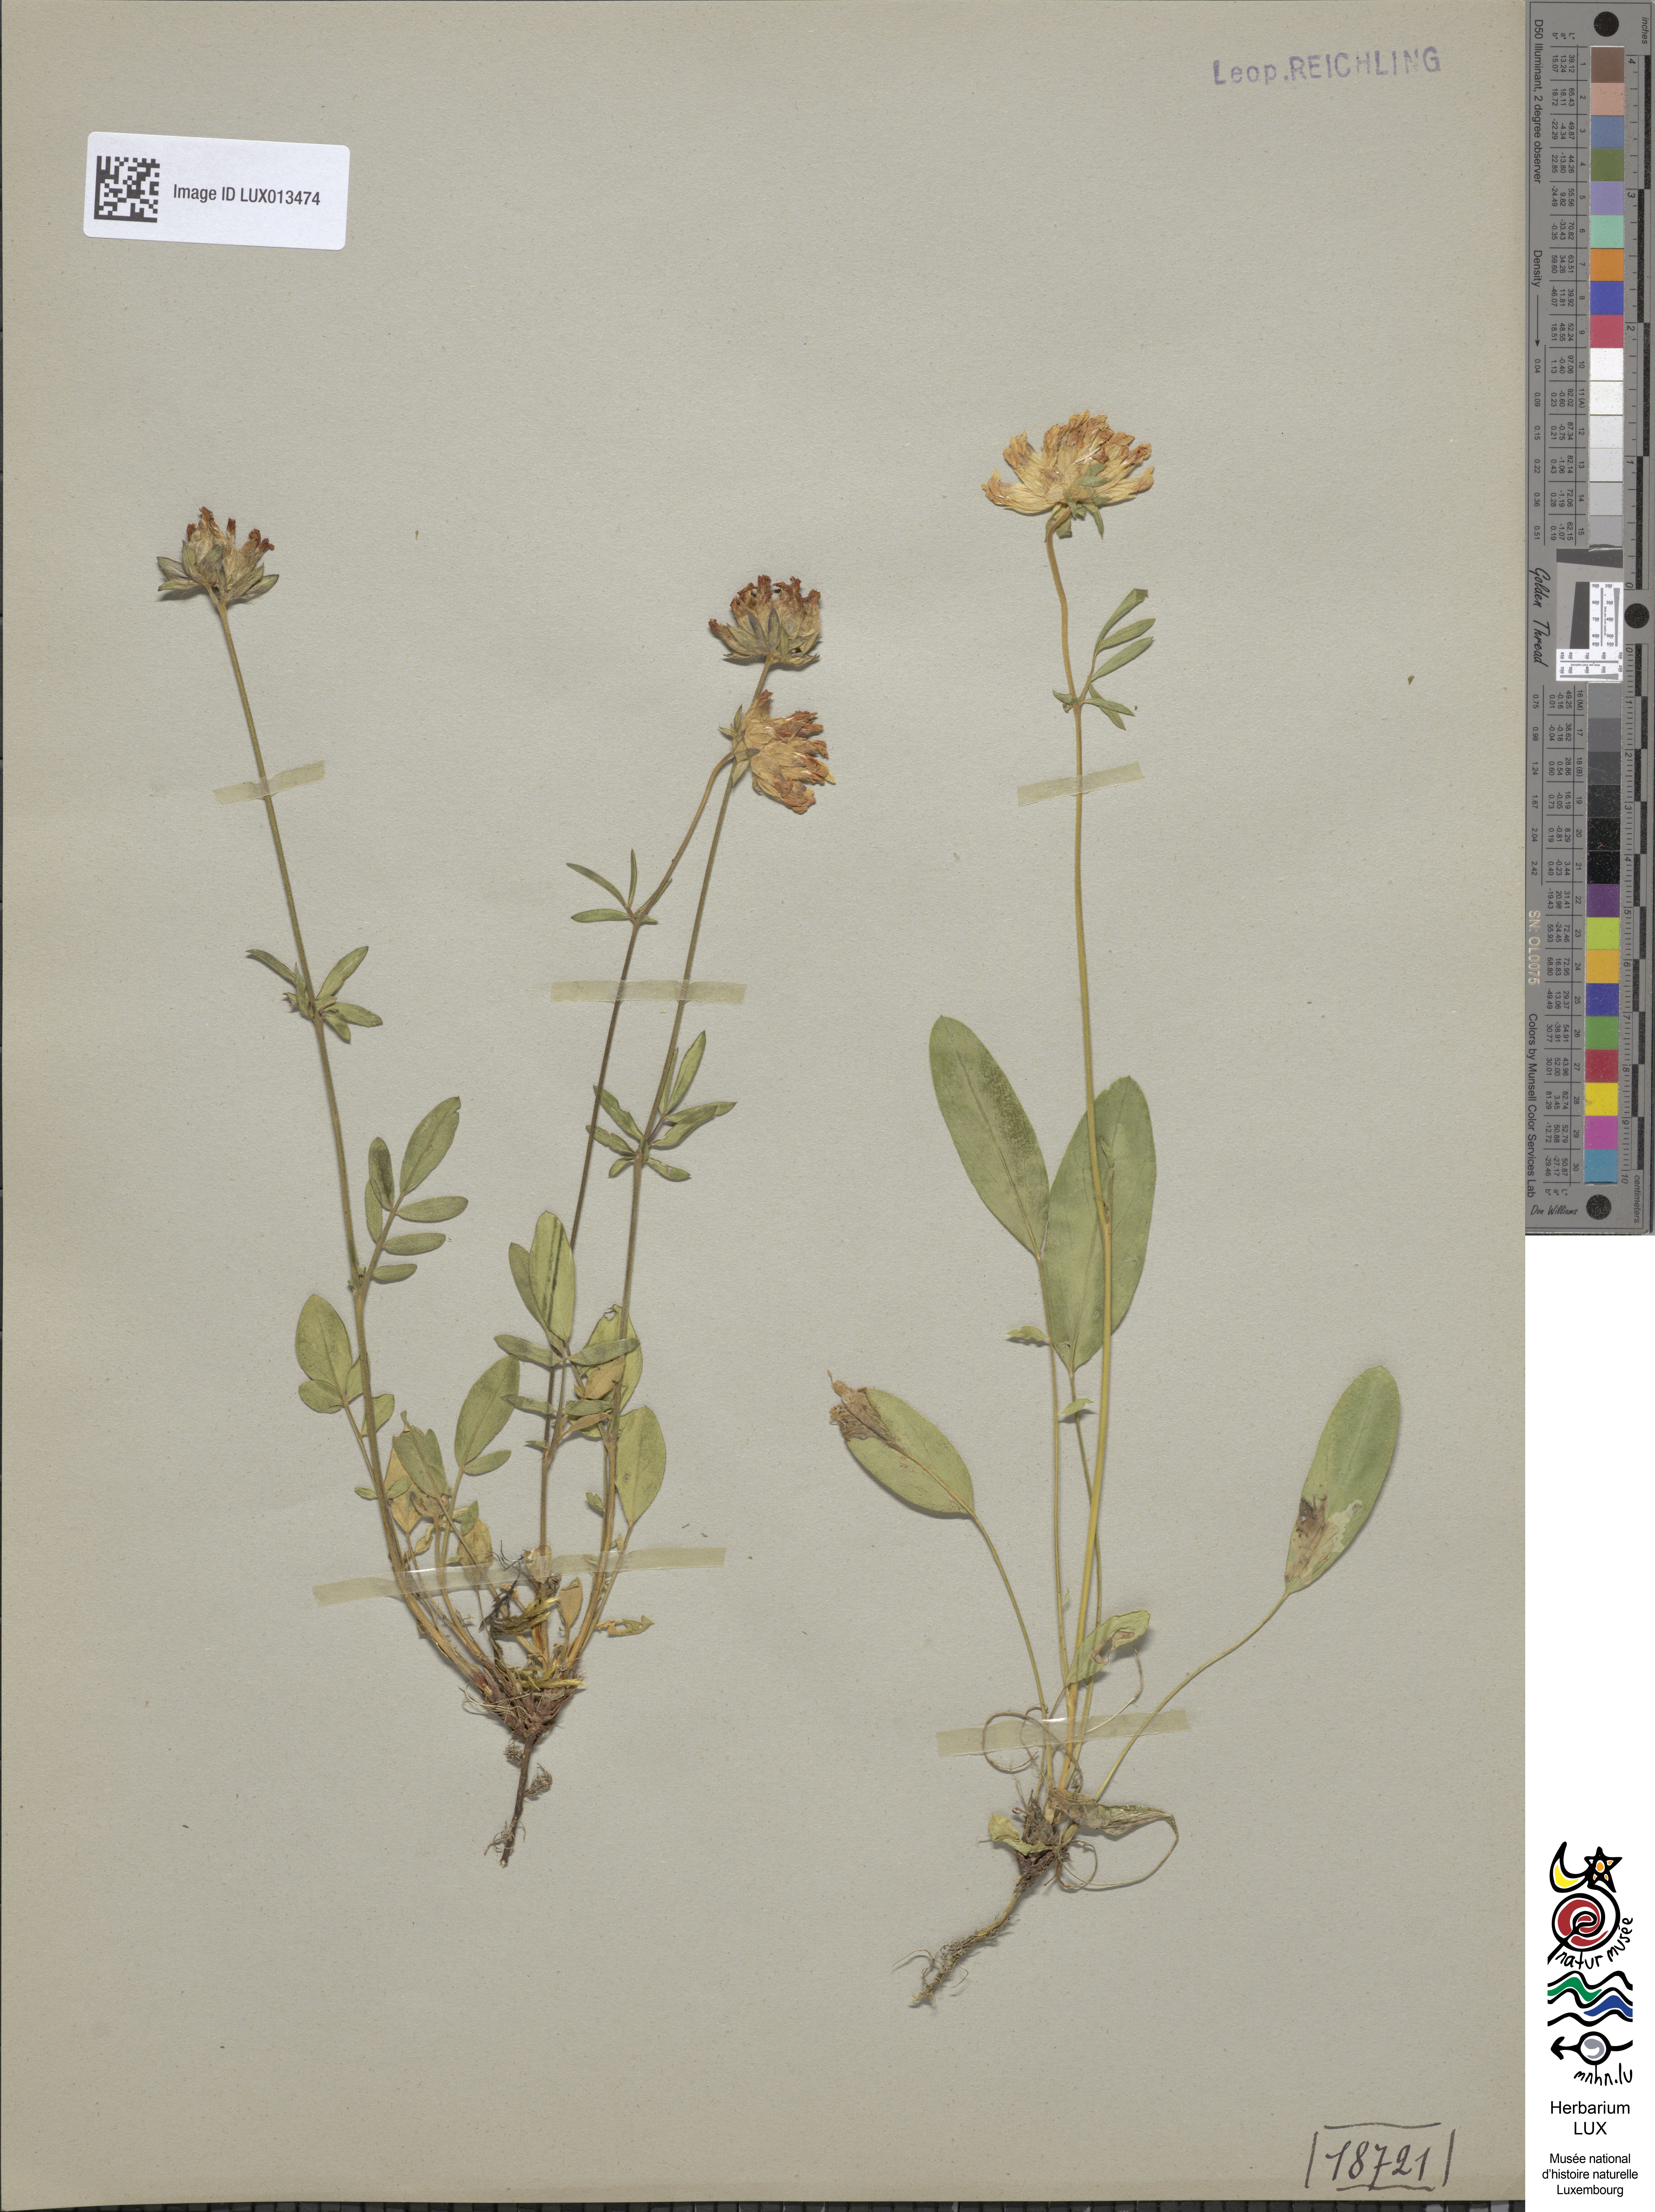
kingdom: Plantae
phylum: Tracheophyta
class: Magnoliopsida
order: Fabales
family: Fabaceae
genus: Anthyllis
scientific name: Anthyllis vulneraria
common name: Kidney vetch
